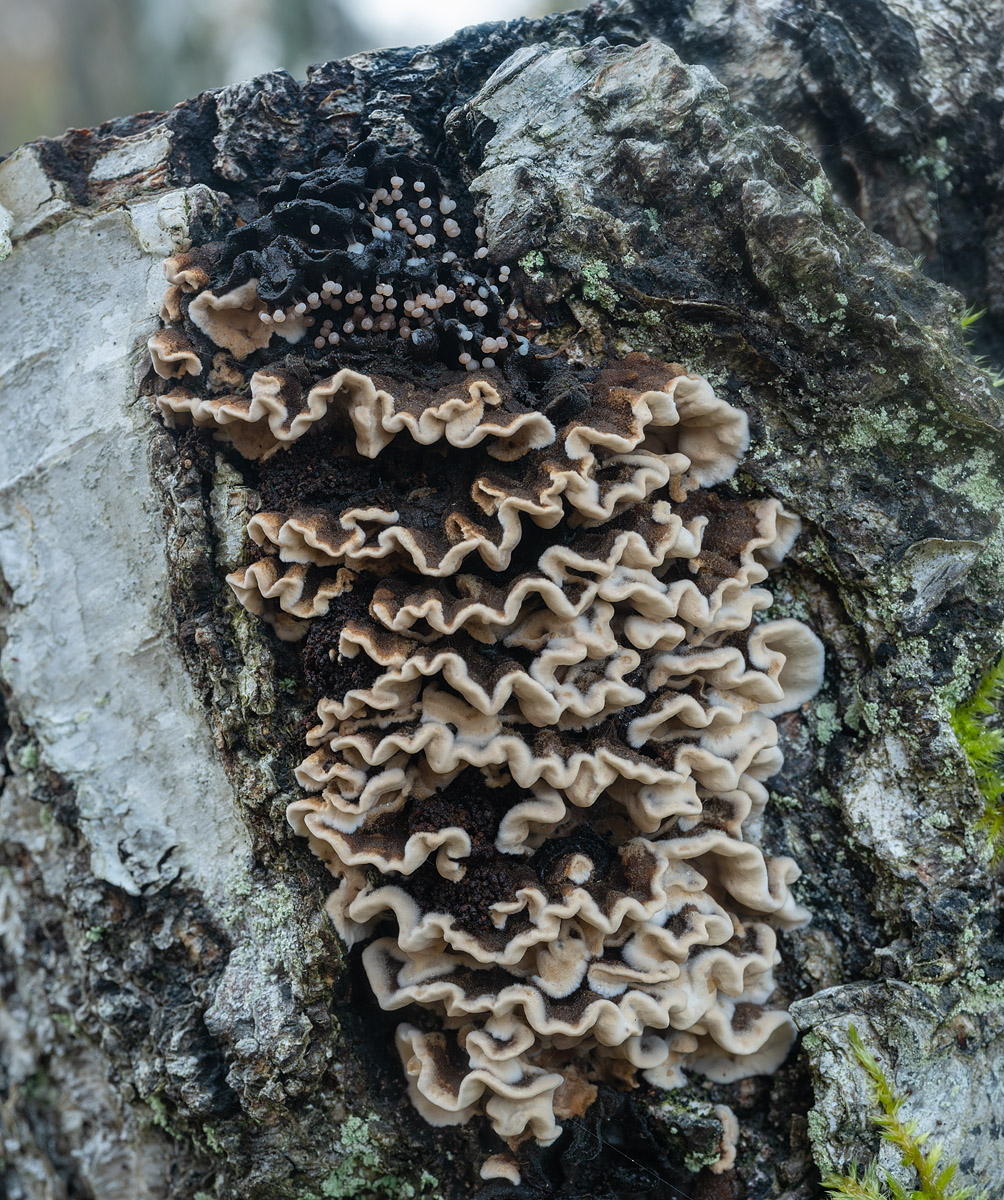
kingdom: Fungi
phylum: Basidiomycota
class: Agaricomycetes
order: Russulales
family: Hericiaceae
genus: Laxitextum
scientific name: Laxitextum bicolor
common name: tvefarvet filtskind
